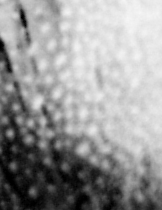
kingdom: Animalia
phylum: Chordata
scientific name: Chordata
